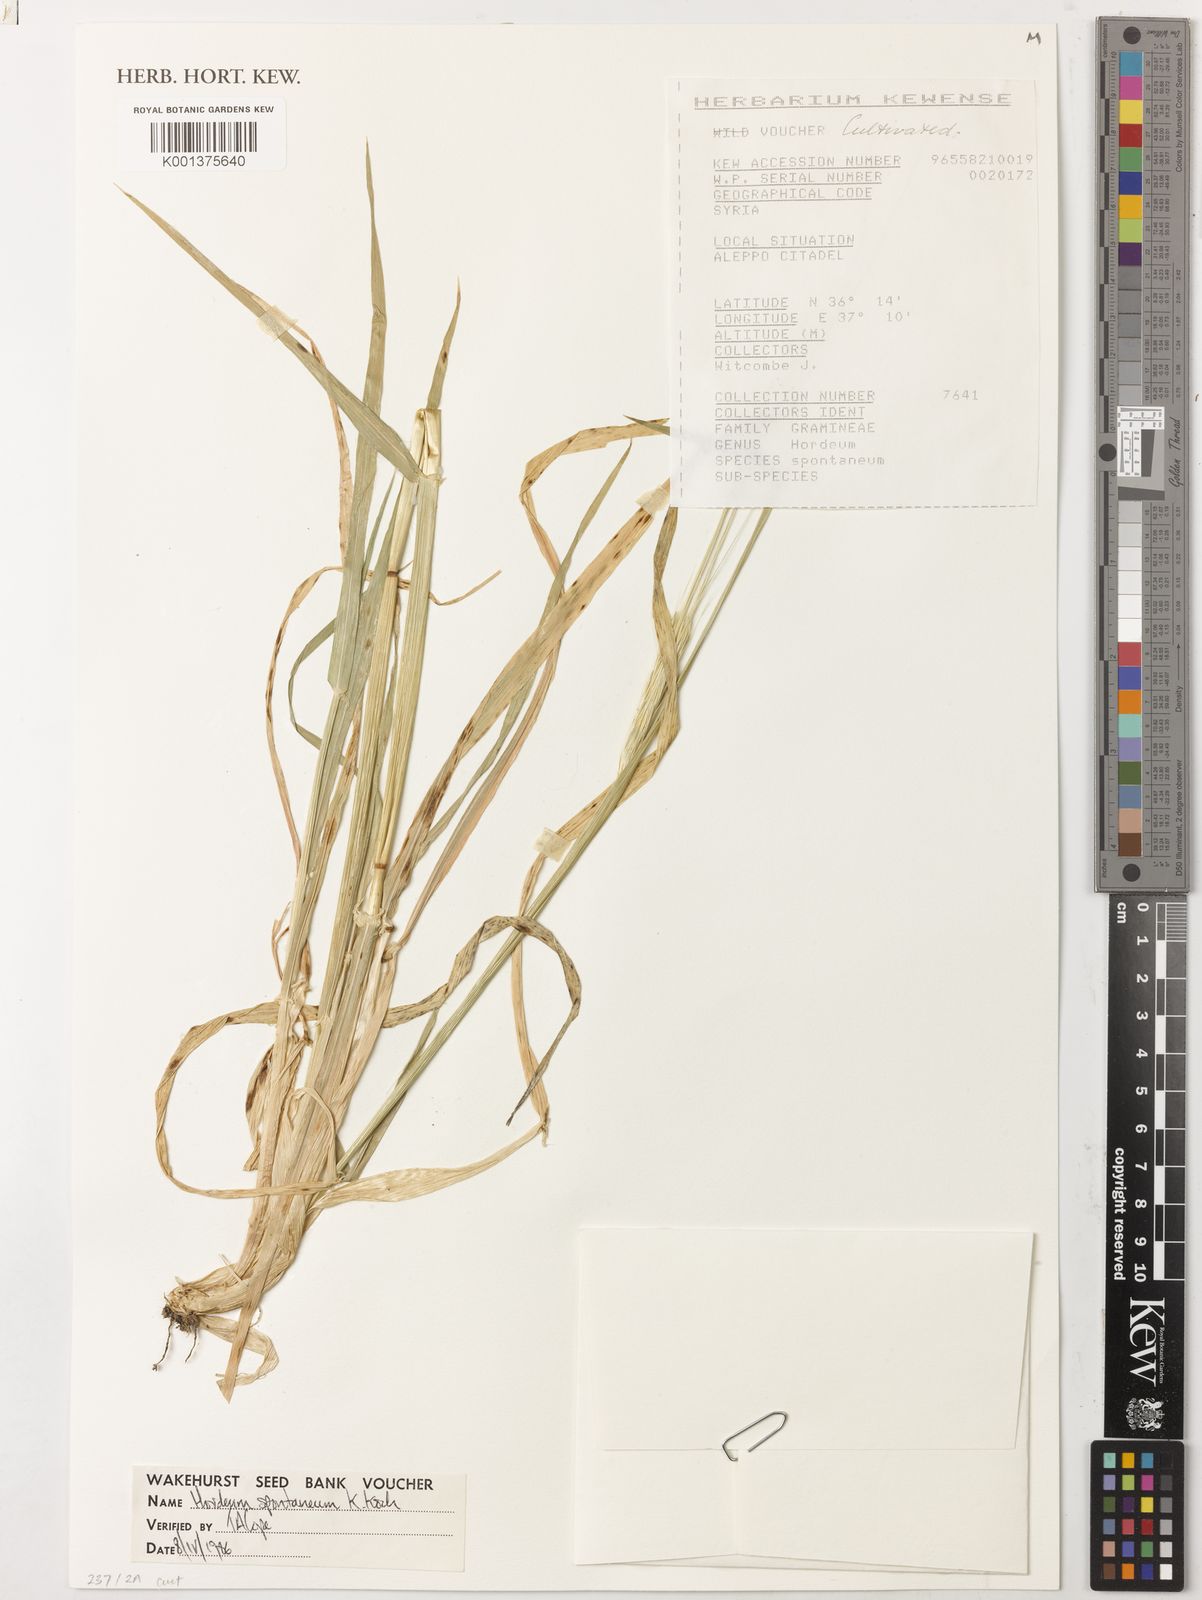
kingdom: Plantae
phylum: Tracheophyta
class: Liliopsida
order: Poales
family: Poaceae
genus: Hordeum
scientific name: Hordeum spontaneum
